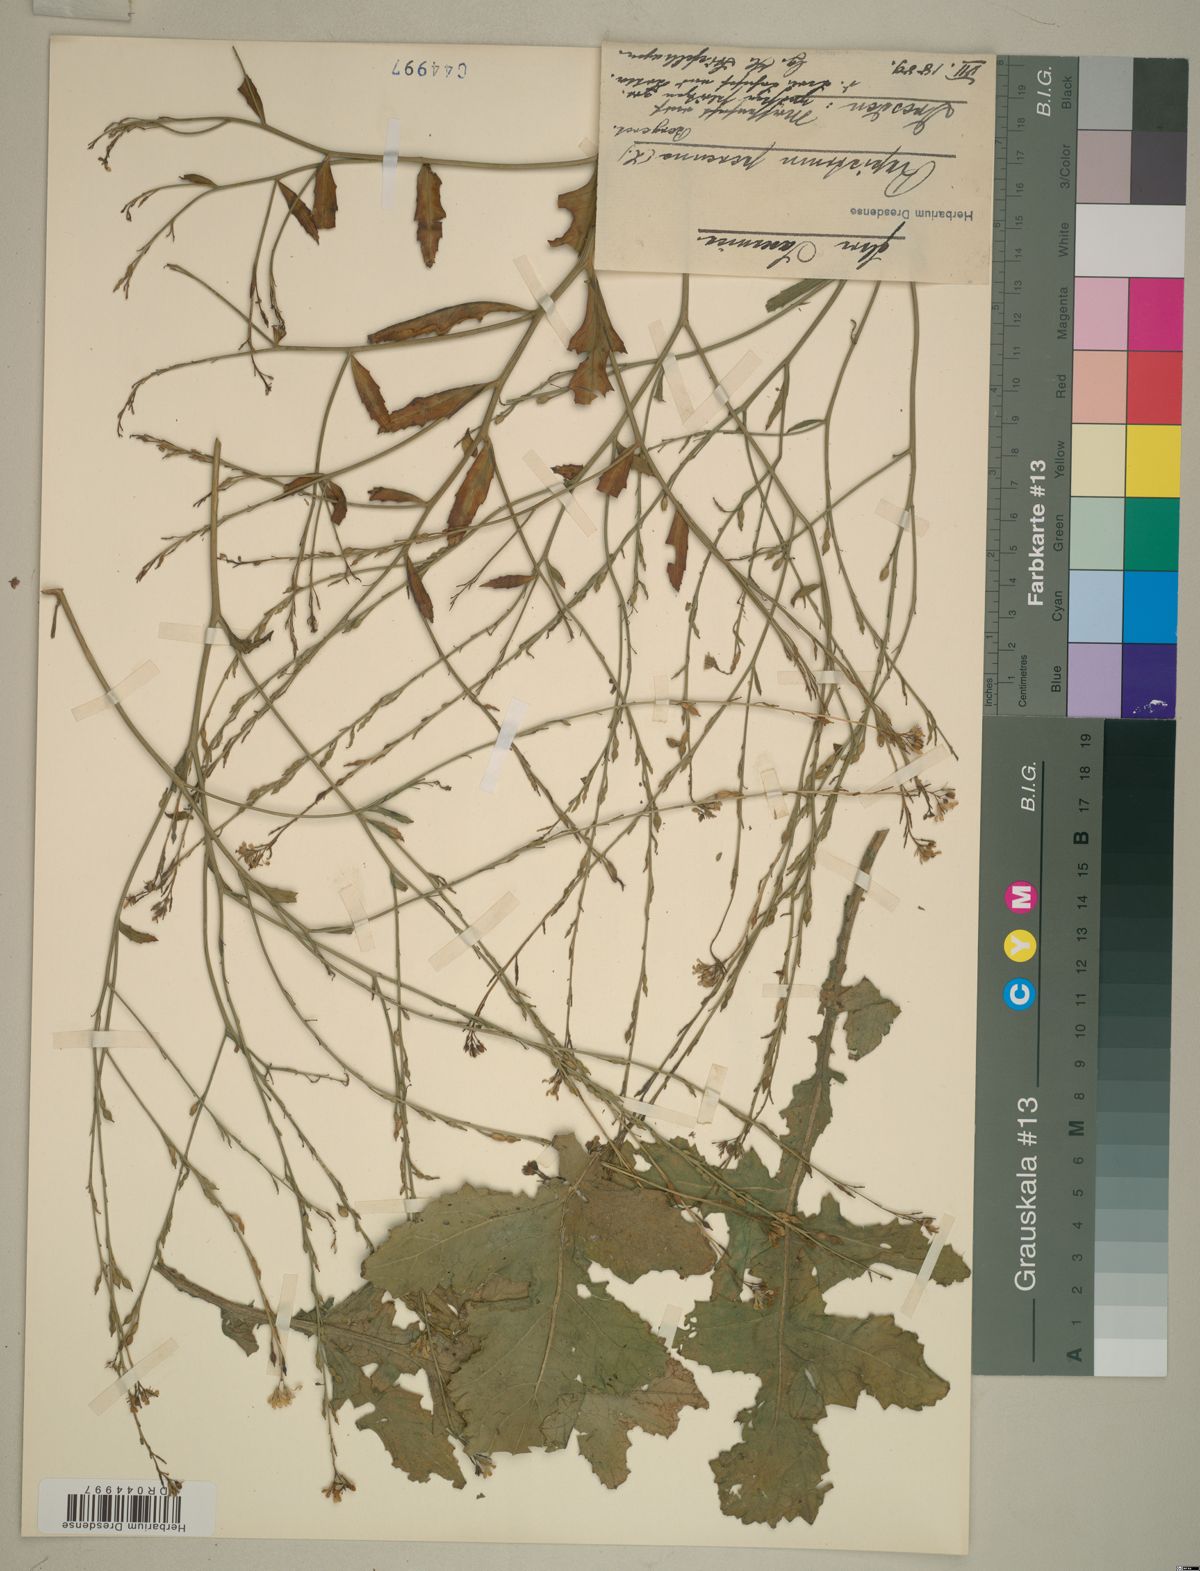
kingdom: Plantae
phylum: Tracheophyta
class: Magnoliopsida
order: Brassicales
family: Brassicaceae
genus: Rapistrum
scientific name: Rapistrum perenne
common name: Steppe cabbage
